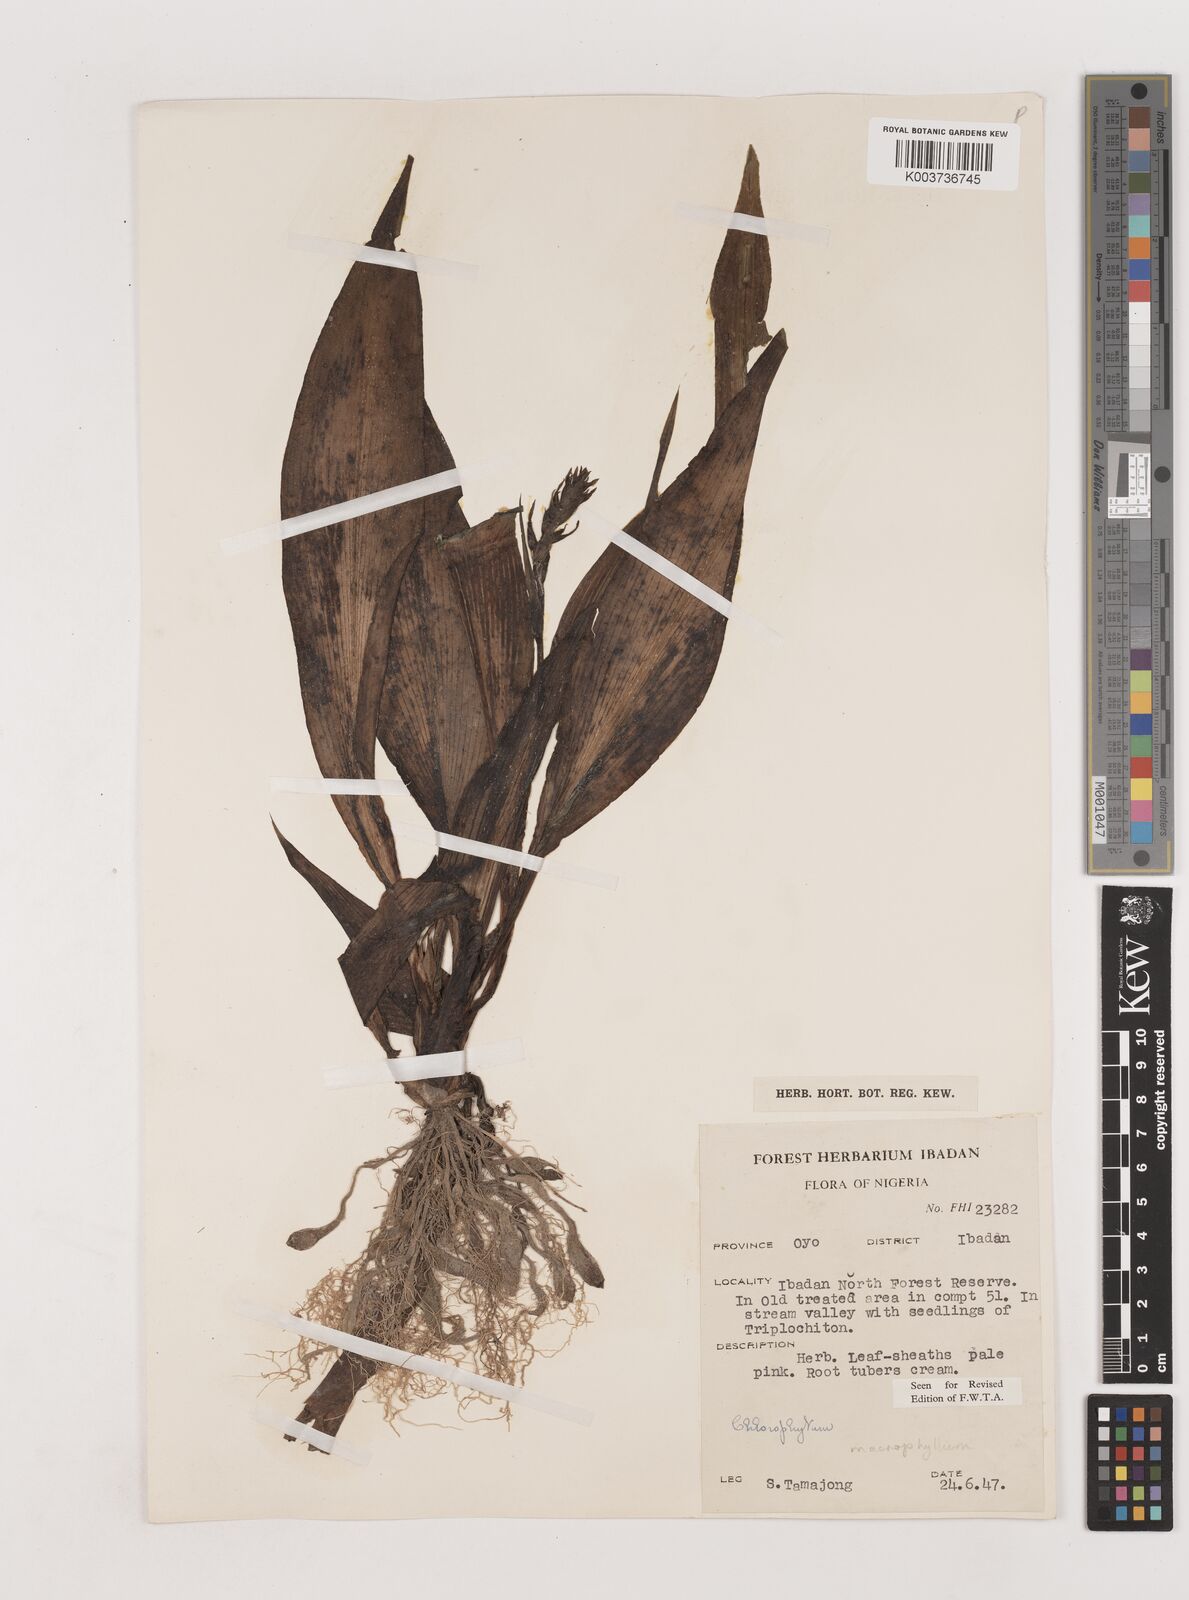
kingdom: Plantae
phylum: Tracheophyta
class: Liliopsida
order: Asparagales
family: Asparagaceae
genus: Chlorophytum
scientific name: Chlorophytum macrophyllum
